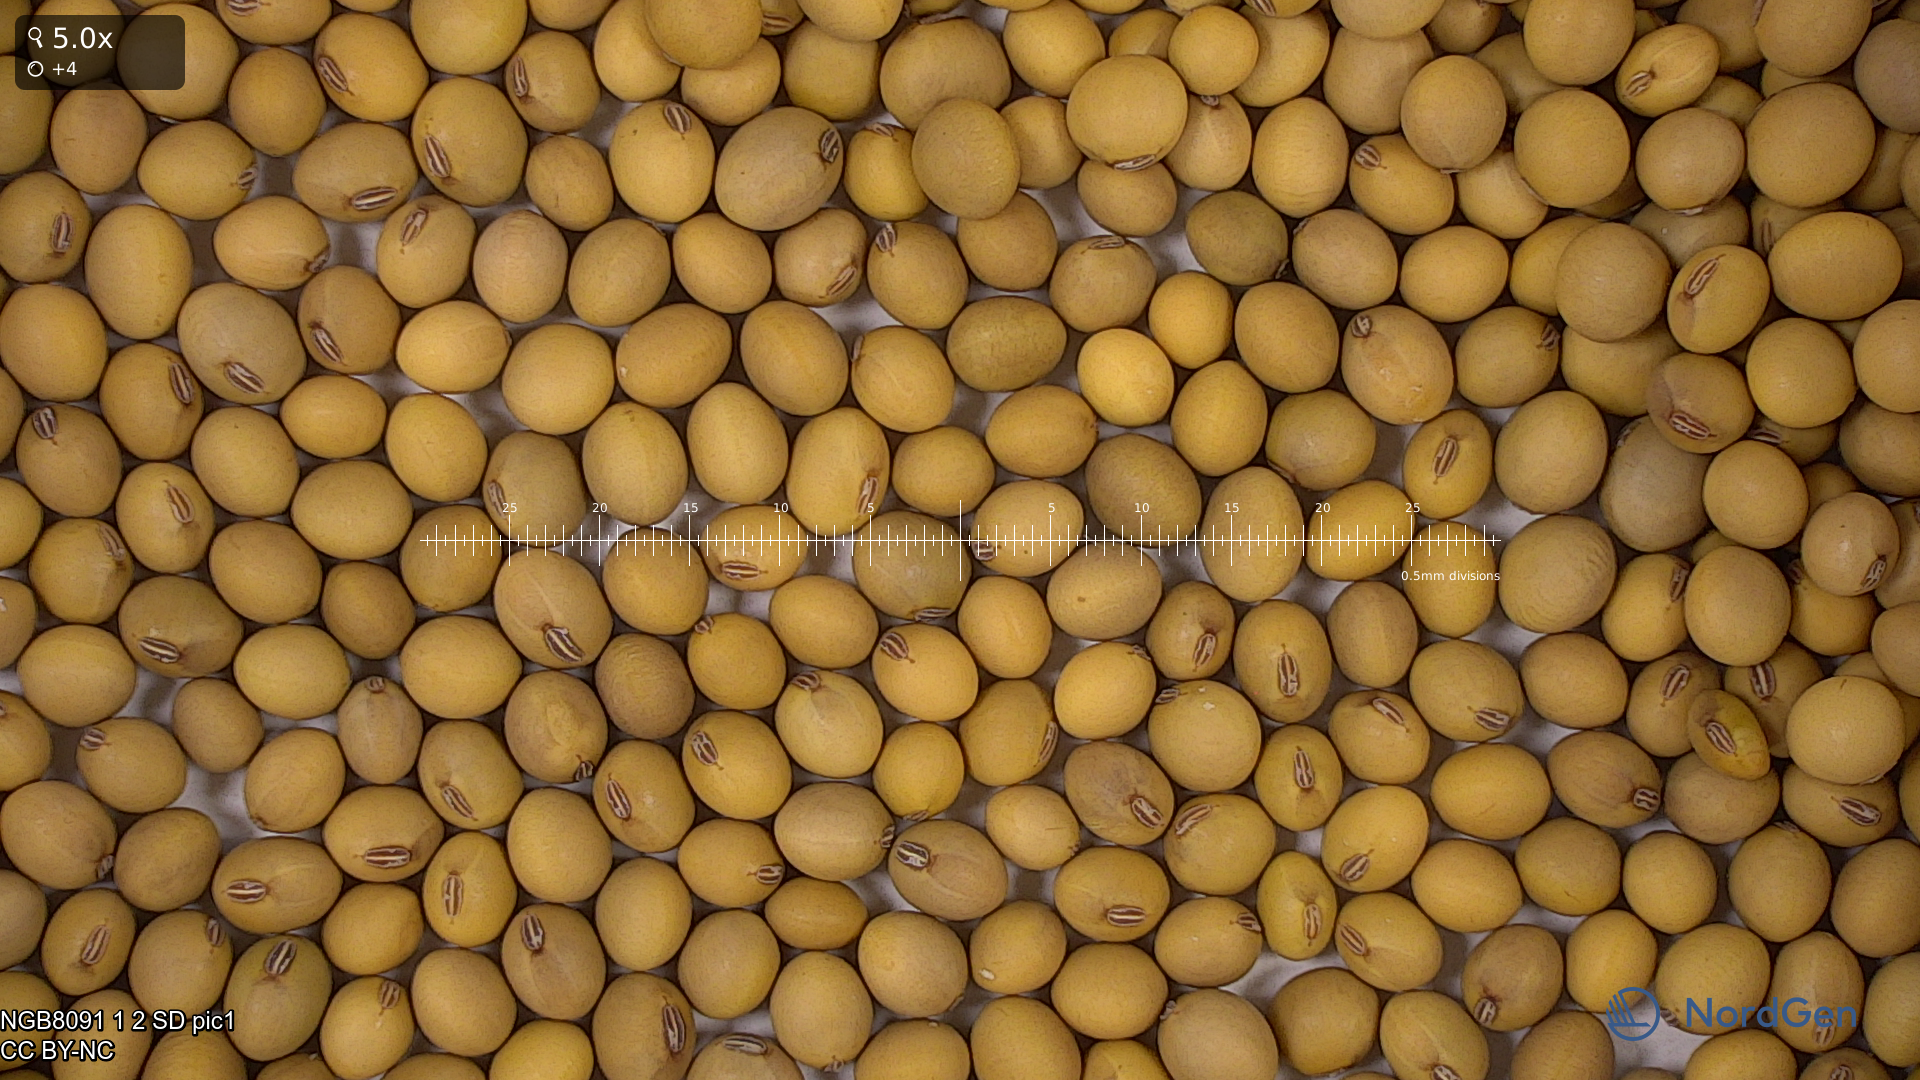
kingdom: Plantae
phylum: Tracheophyta
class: Magnoliopsida
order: Fabales
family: Fabaceae
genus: Glycine
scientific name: Glycine max
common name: Soya-bean
